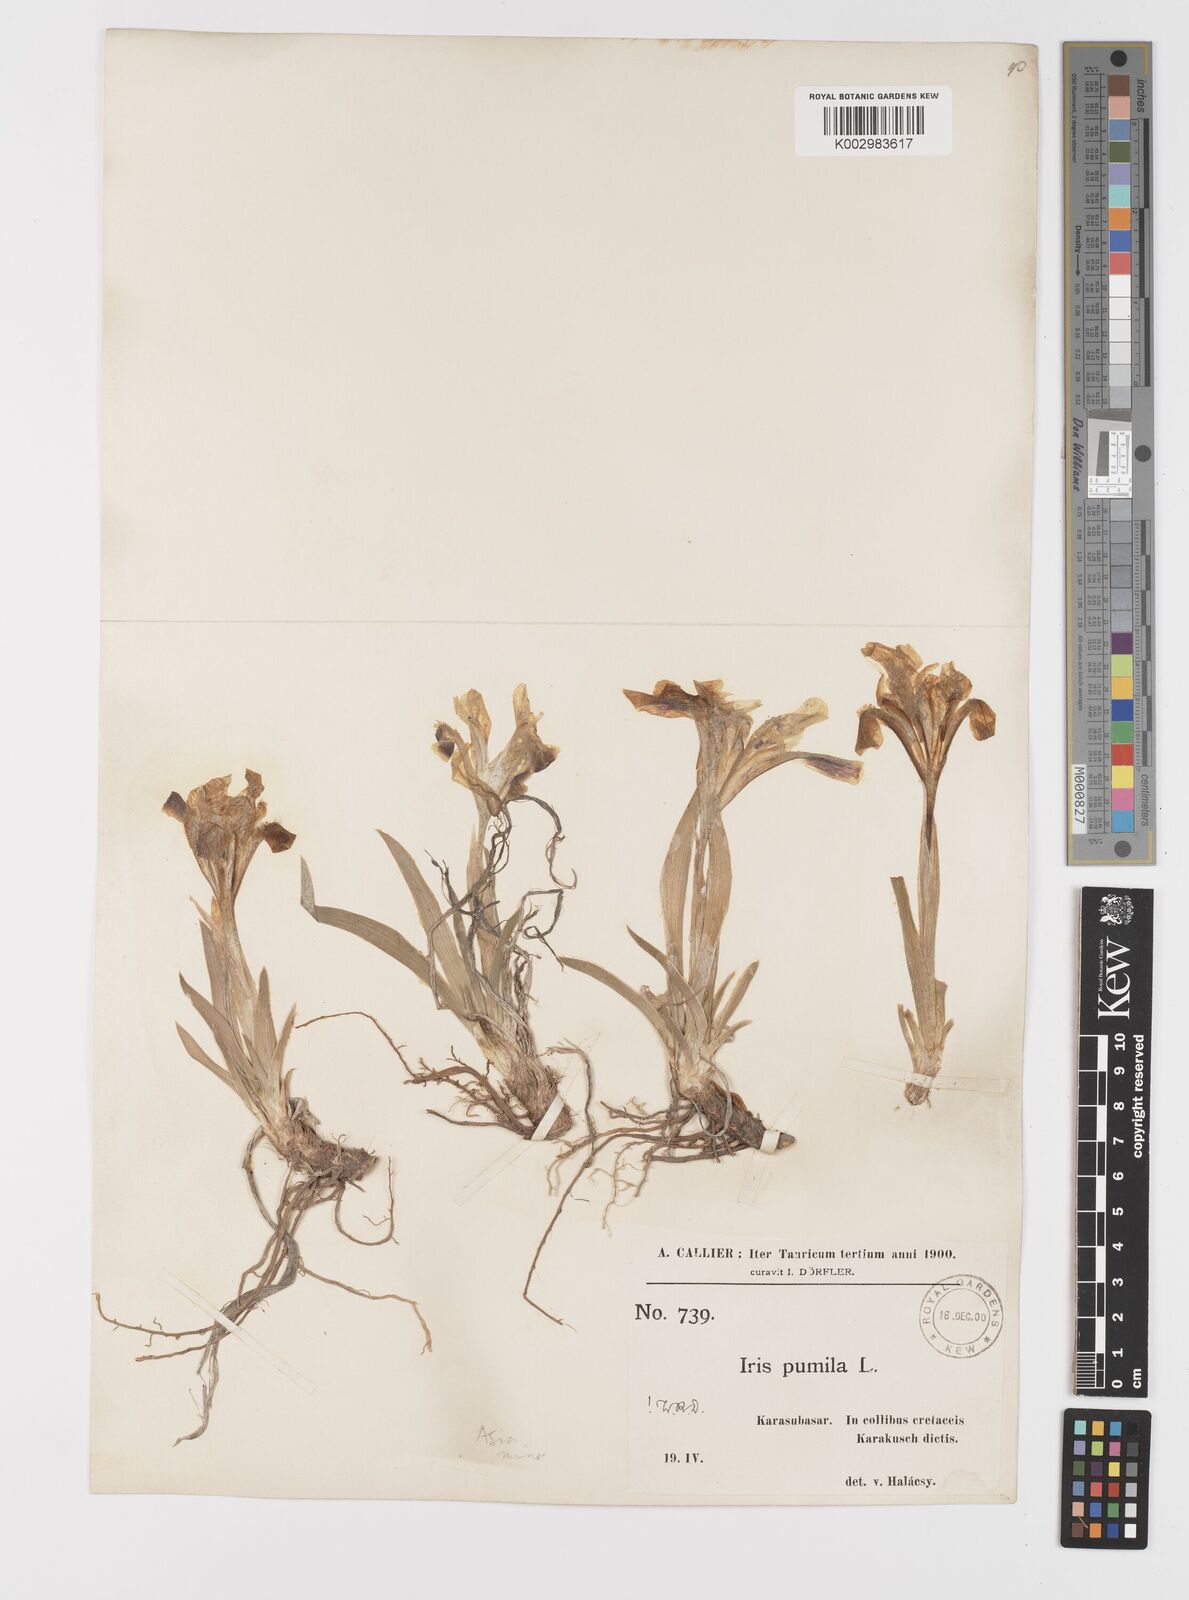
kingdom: Plantae
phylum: Tracheophyta
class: Liliopsida
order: Asparagales
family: Iridaceae
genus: Iris
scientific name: Iris pumila
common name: Dwarf iris
